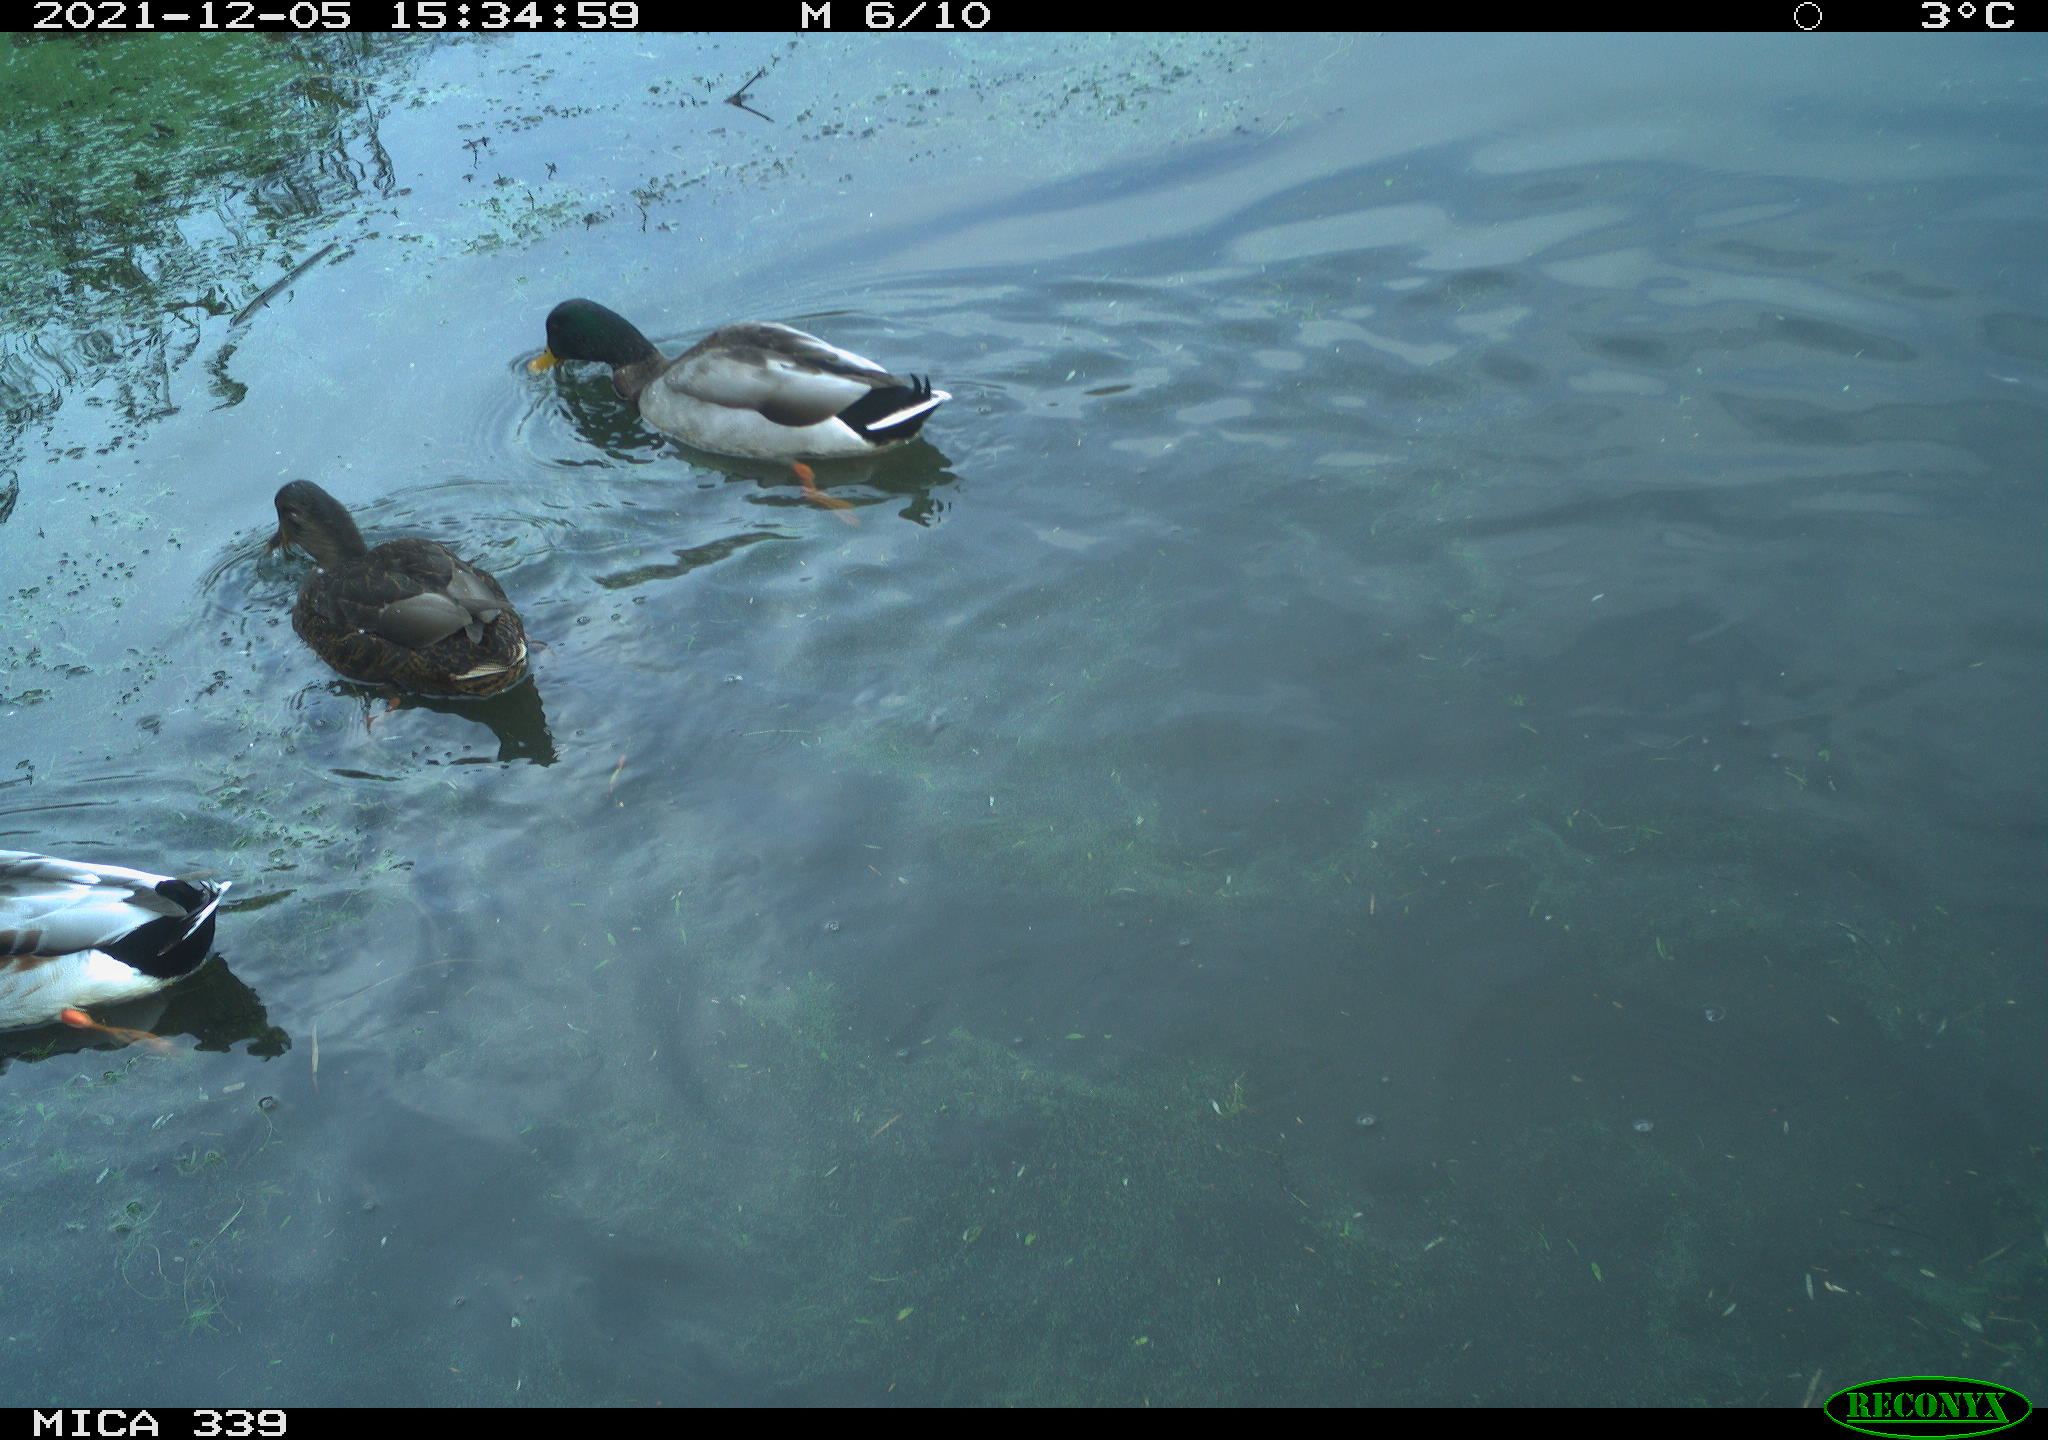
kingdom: Animalia
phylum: Chordata
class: Aves
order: Anseriformes
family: Anatidae
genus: Anas
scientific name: Anas platyrhynchos
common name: Mallard
